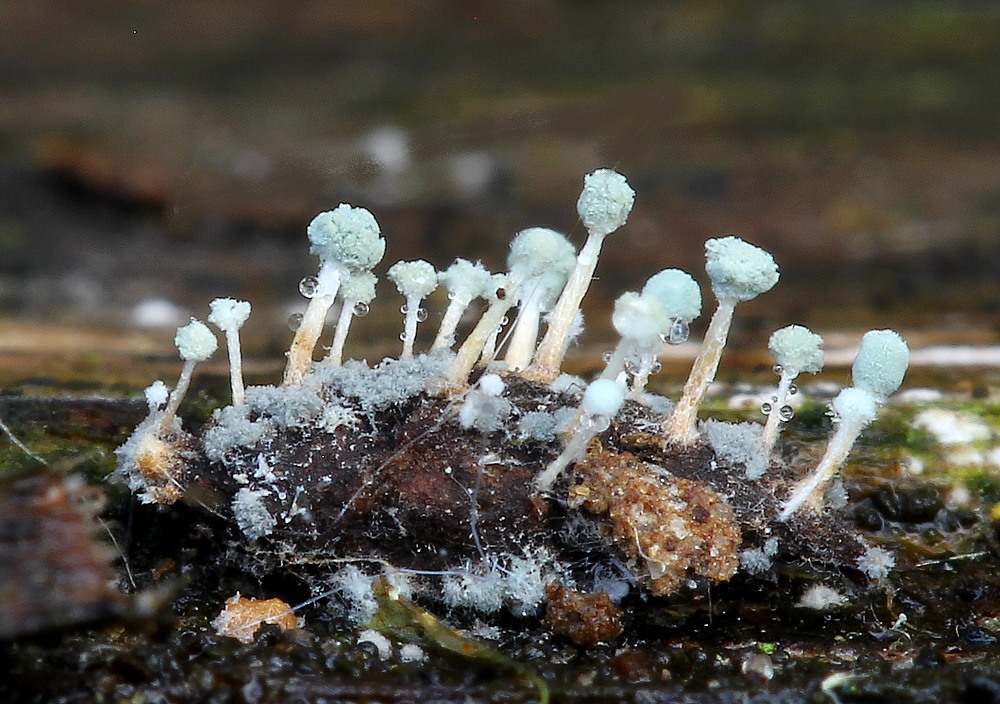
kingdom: Fungi
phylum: Ascomycota
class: Eurotiomycetes
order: Eurotiales
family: Aspergillaceae
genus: Penicillium
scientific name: Penicillium vulpinum
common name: kølle-penselskimmel
